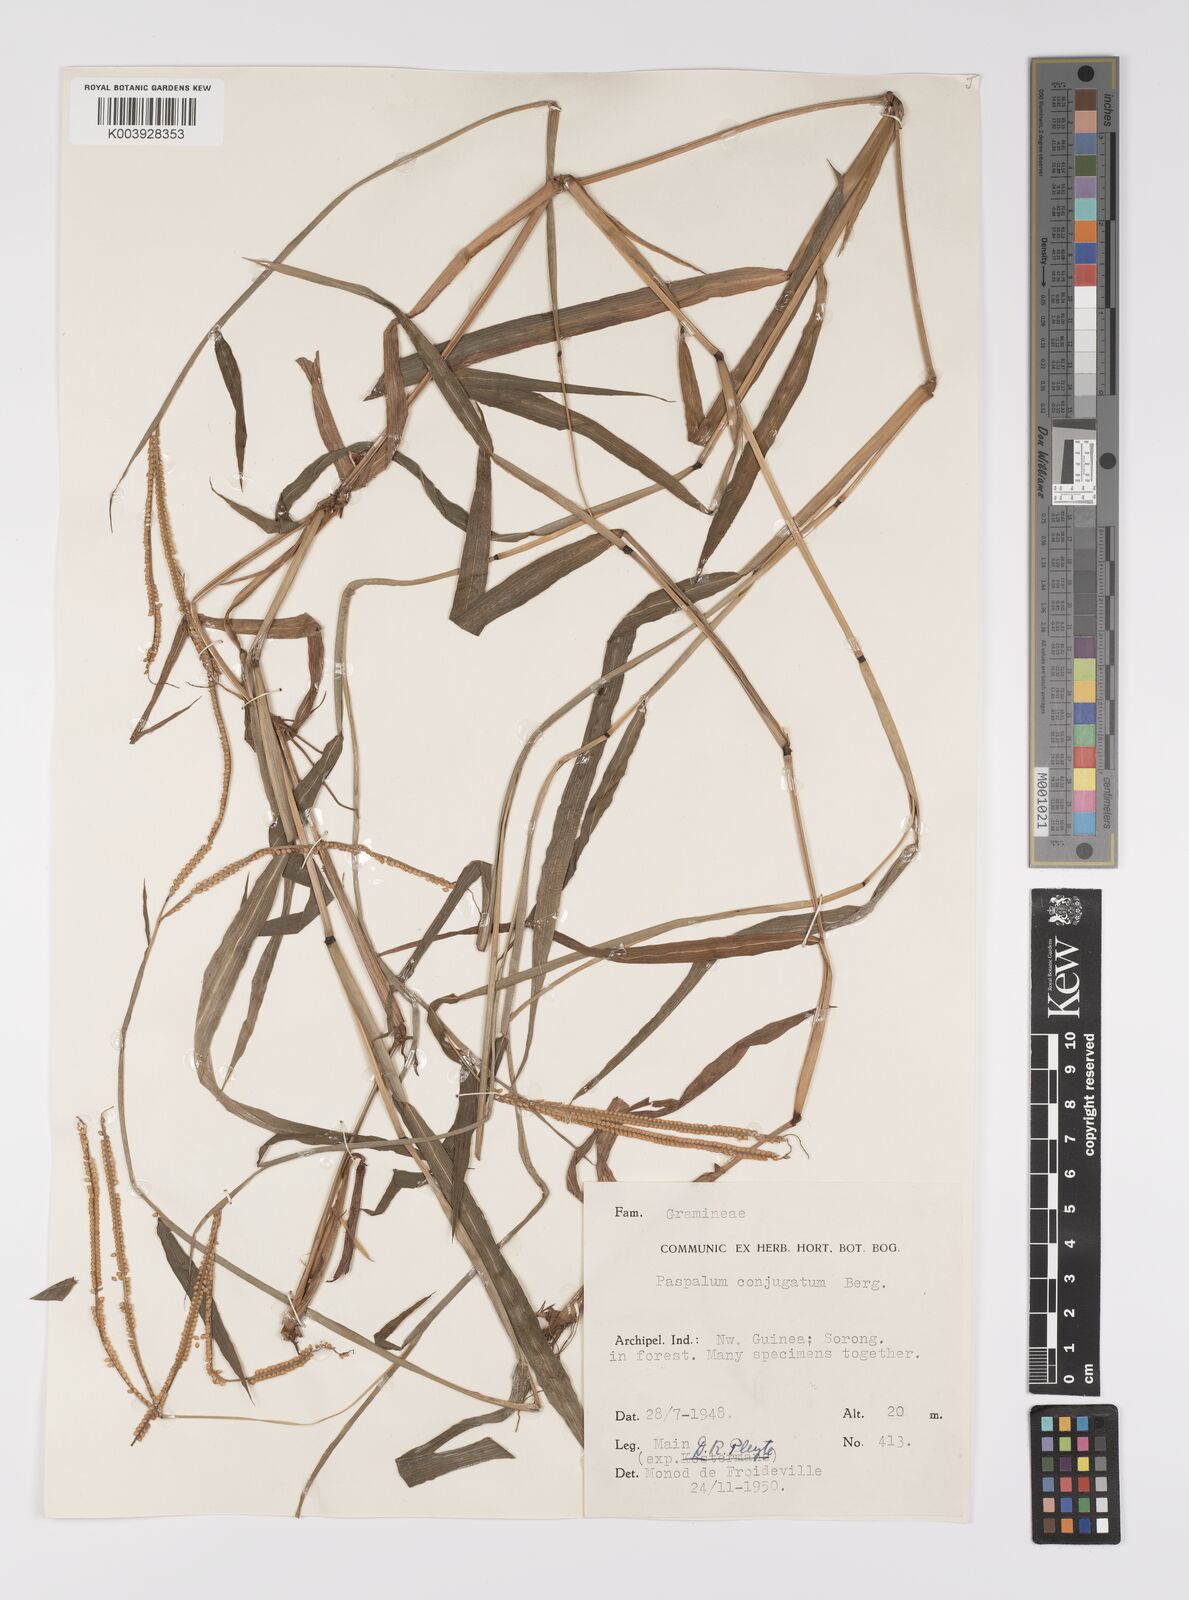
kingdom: Plantae
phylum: Tracheophyta
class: Liliopsida
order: Poales
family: Poaceae
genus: Paspalum
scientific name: Paspalum conjugatum
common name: Hilograss
